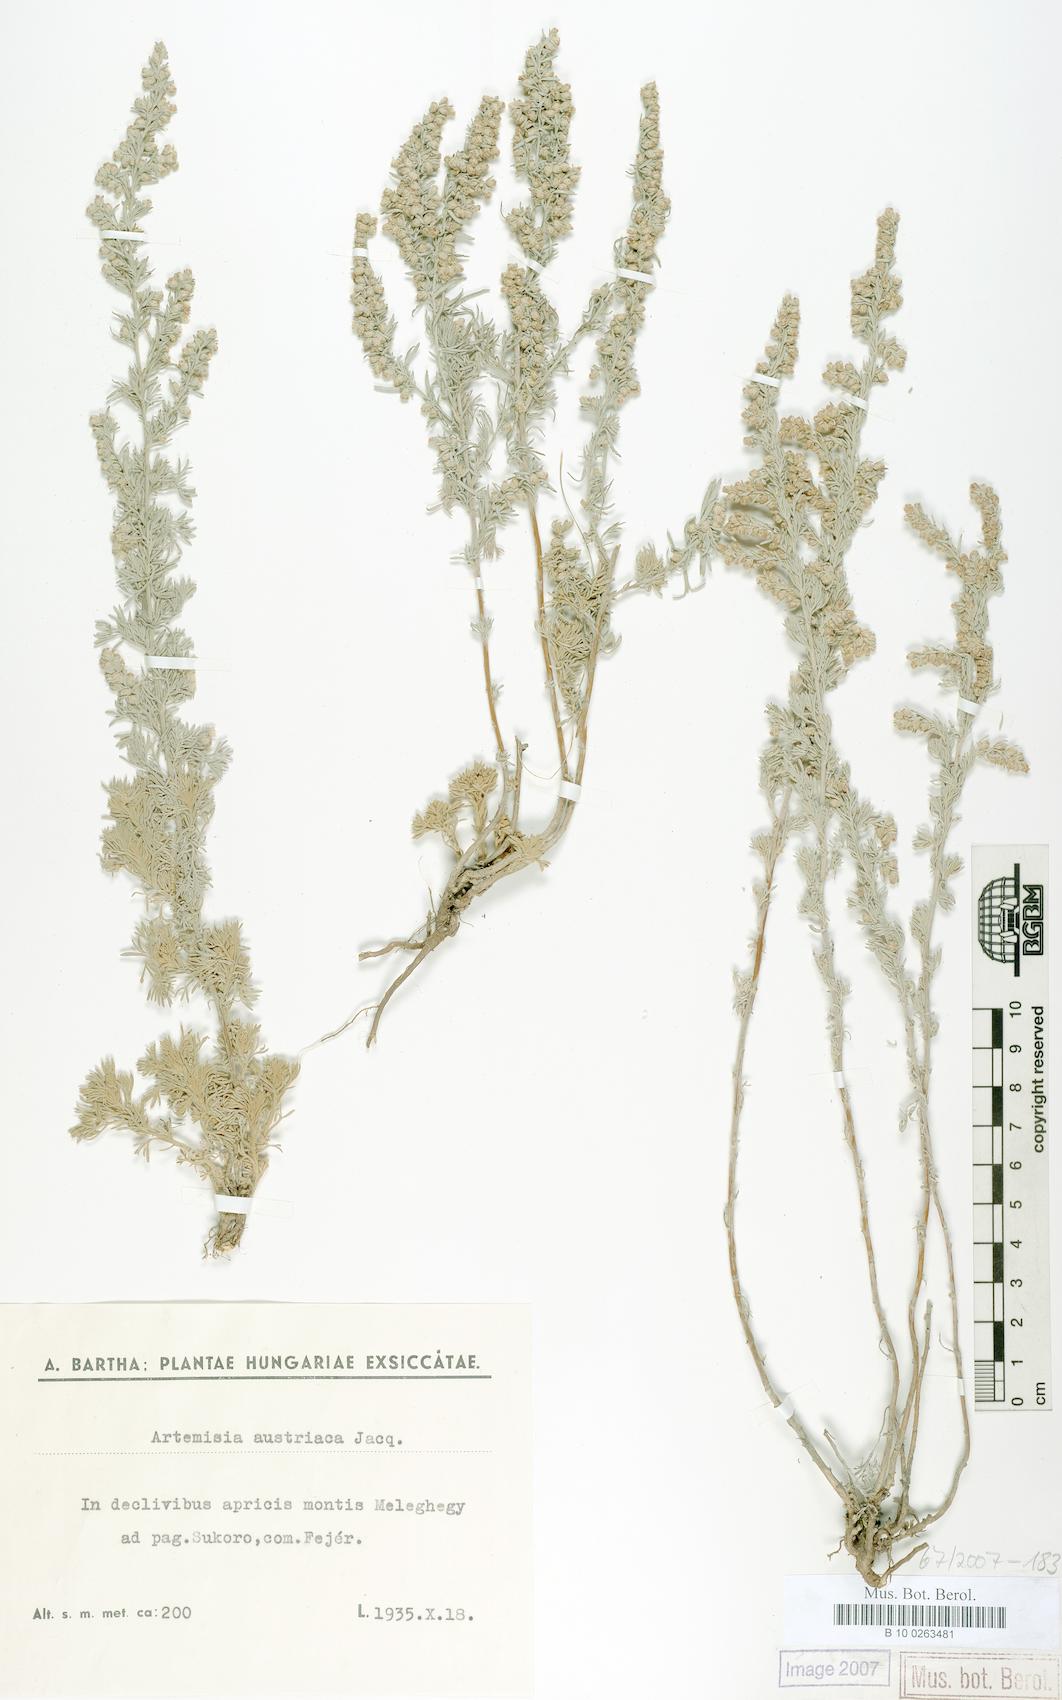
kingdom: Plantae
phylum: Tracheophyta
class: Magnoliopsida
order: Asterales
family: Asteraceae
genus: Artemisia
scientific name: Artemisia austriaca
